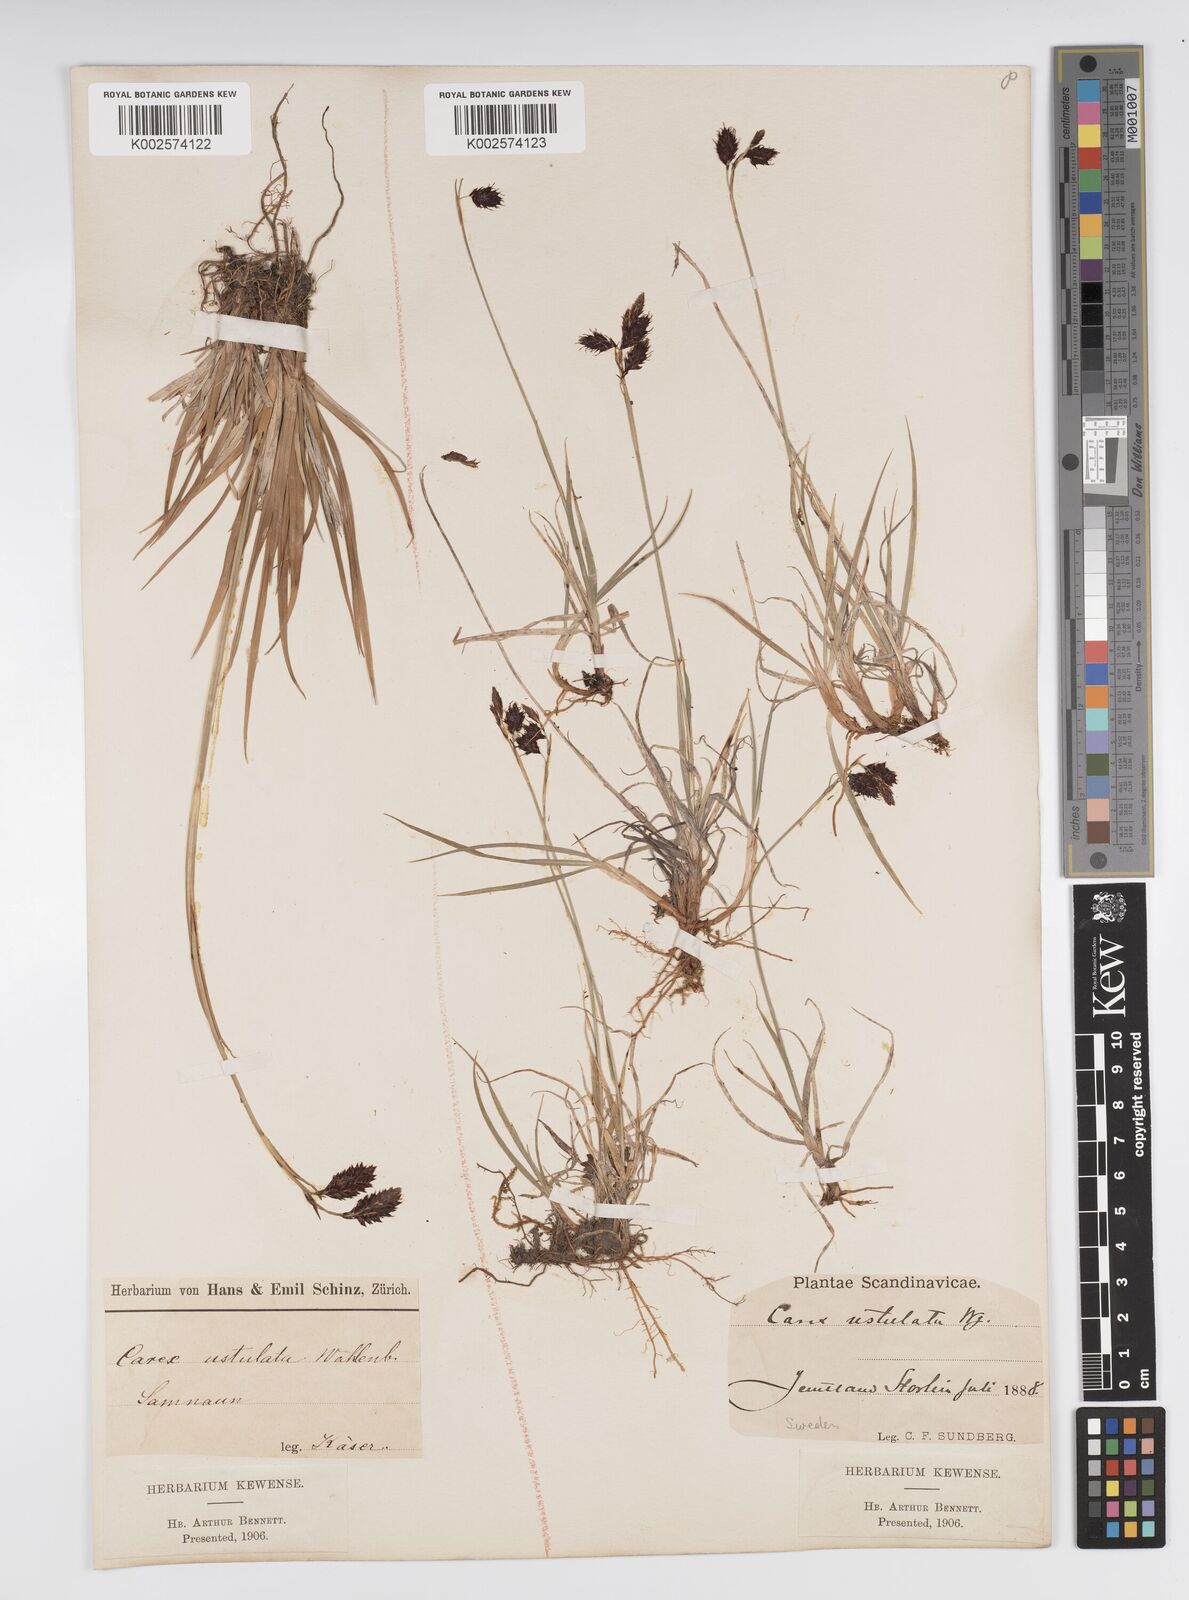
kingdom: Plantae
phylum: Tracheophyta
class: Liliopsida
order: Poales
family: Cyperaceae
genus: Carex
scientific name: Carex atrofusca
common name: Scorched alpine-sedge
